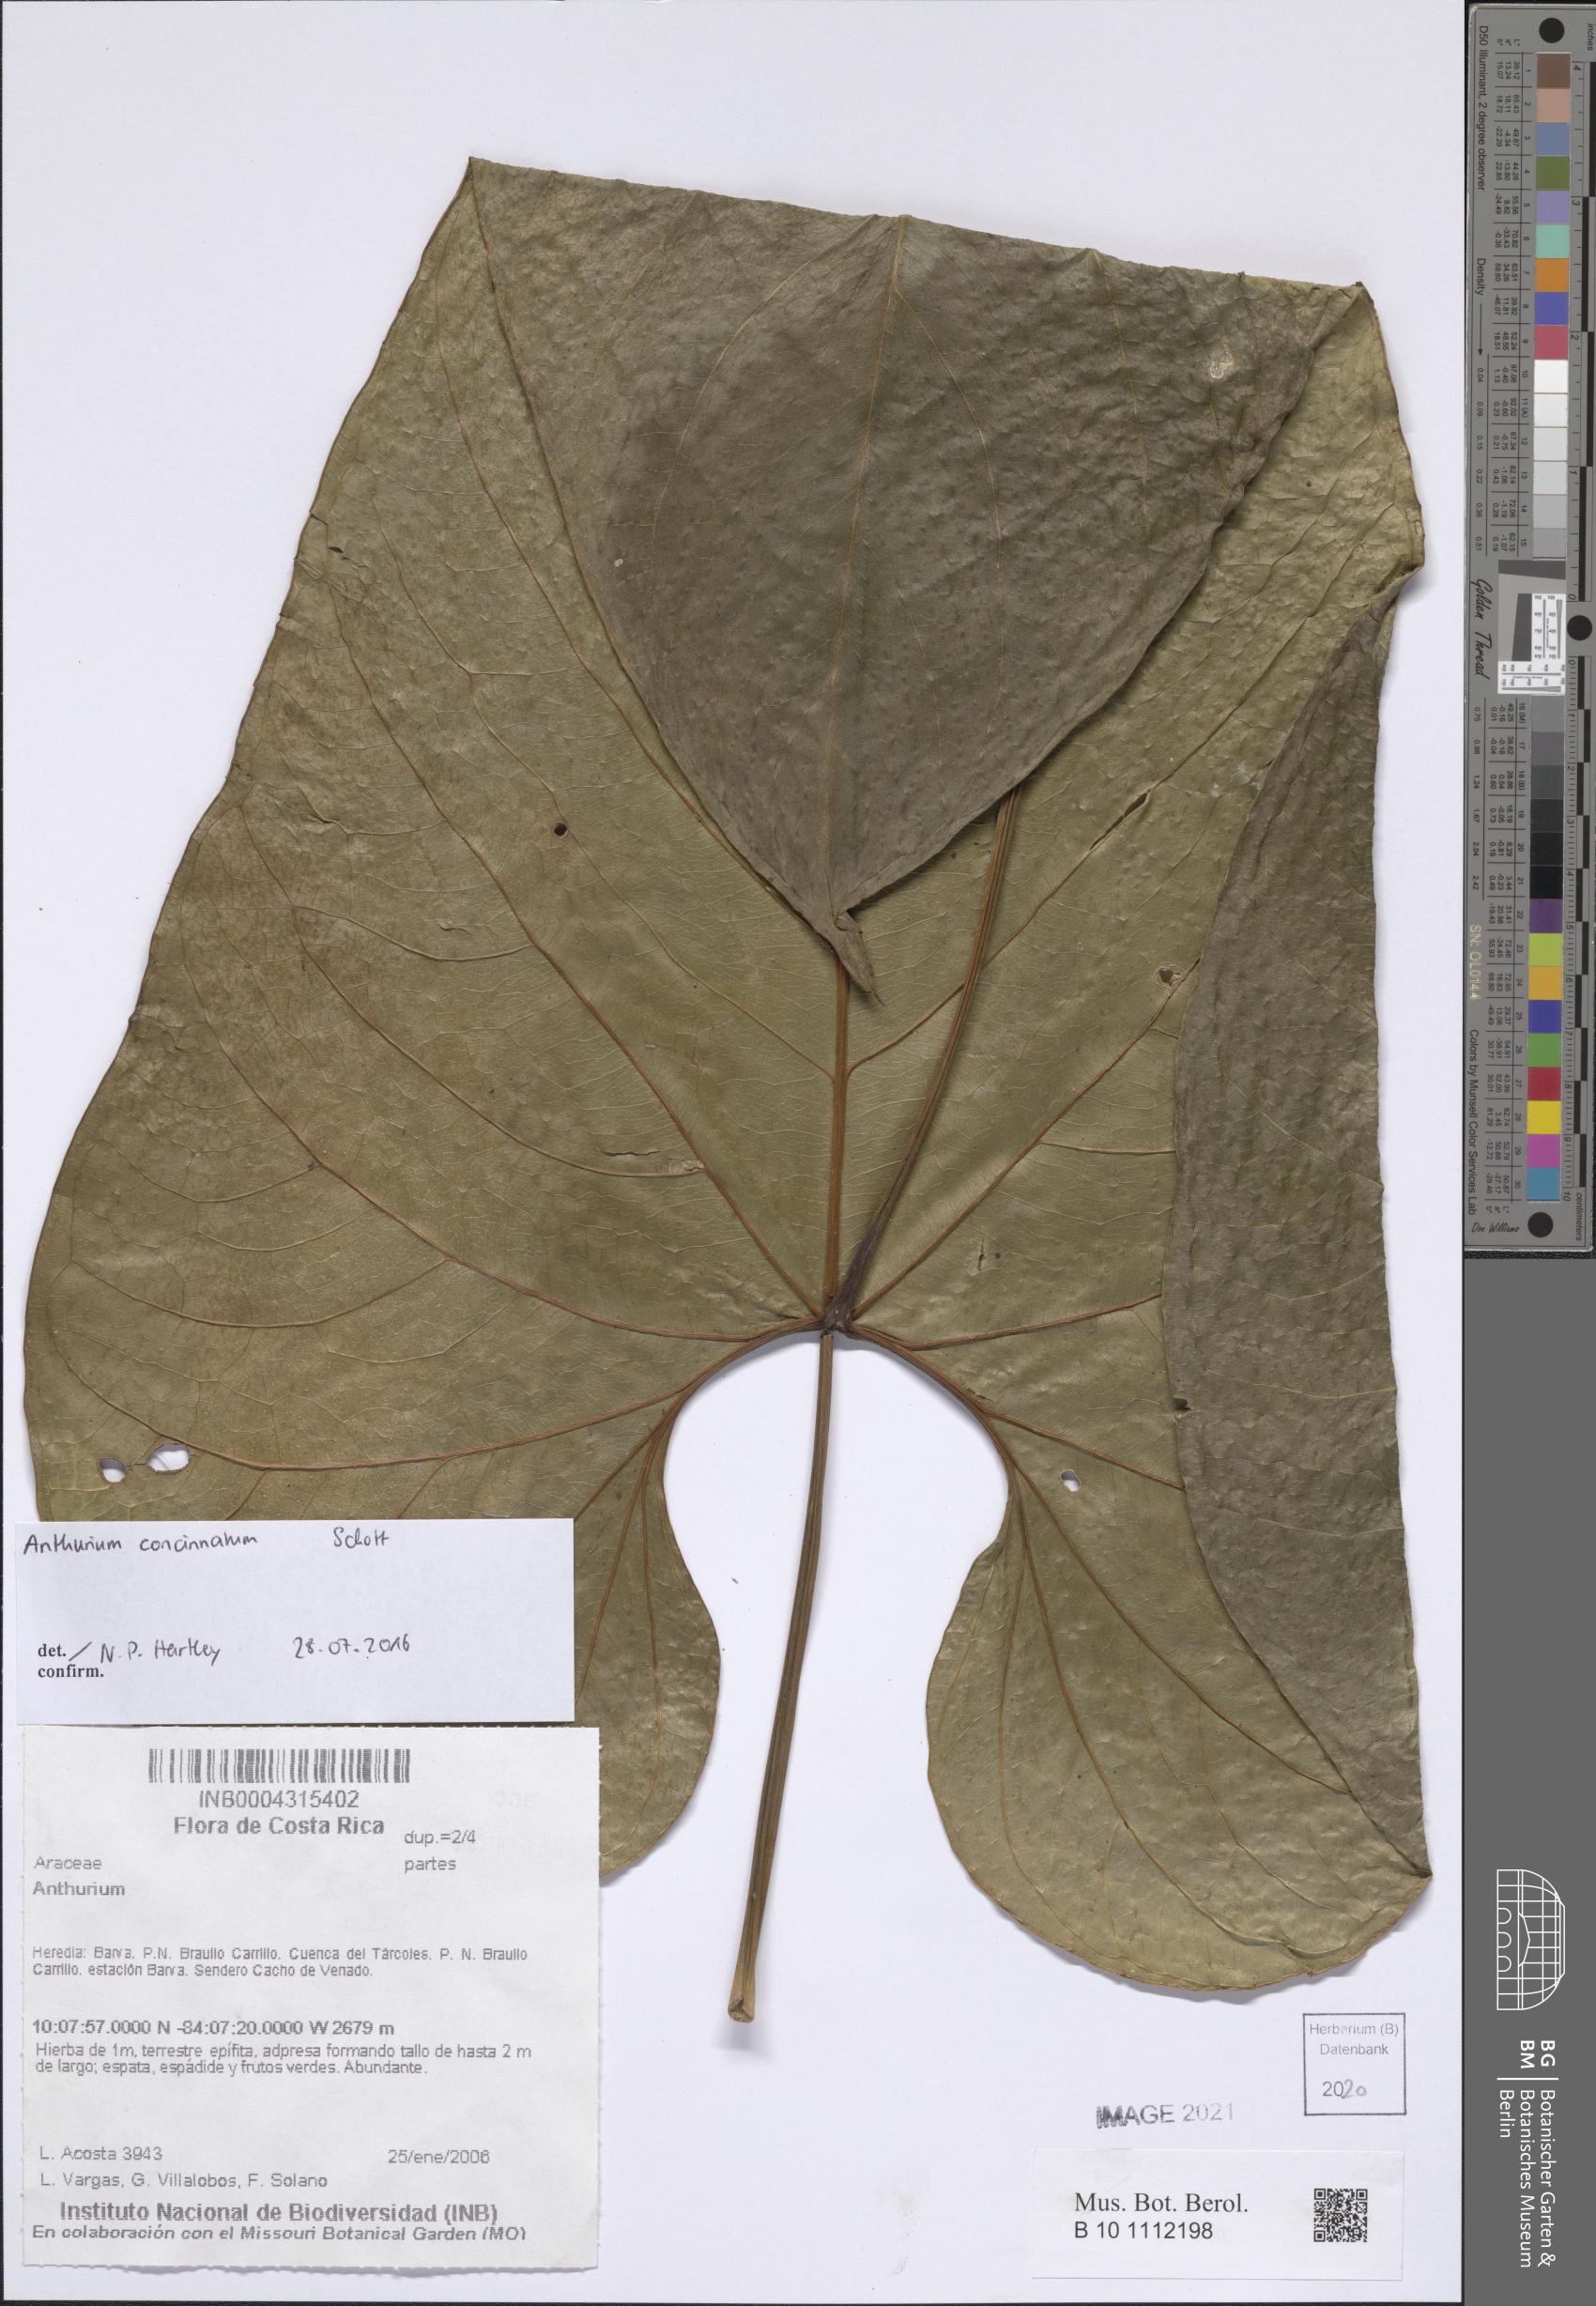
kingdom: Plantae
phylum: Tracheophyta
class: Liliopsida
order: Alismatales
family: Araceae
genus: Anthurium
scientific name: Anthurium
